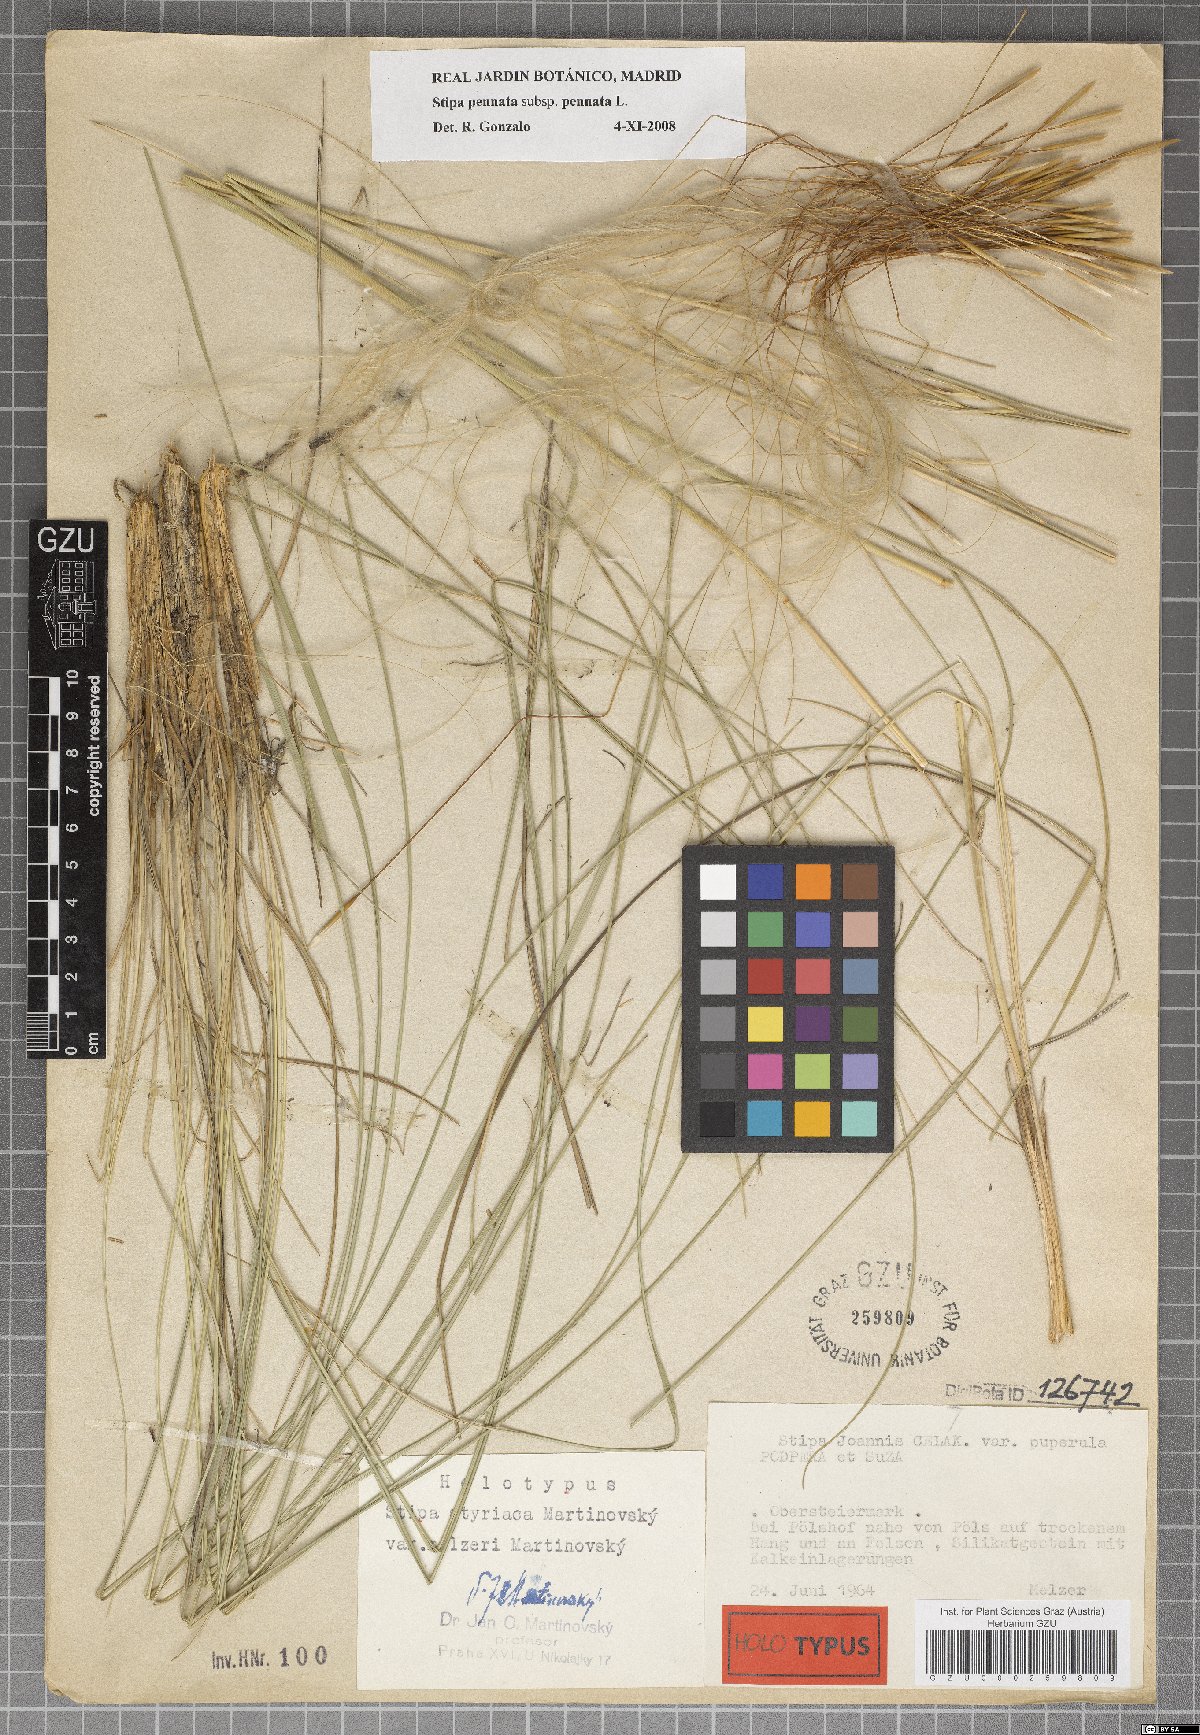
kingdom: Plantae
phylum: Tracheophyta
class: Liliopsida
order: Poales
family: Poaceae
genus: Stipa
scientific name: Stipa pennata
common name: European feather grass
